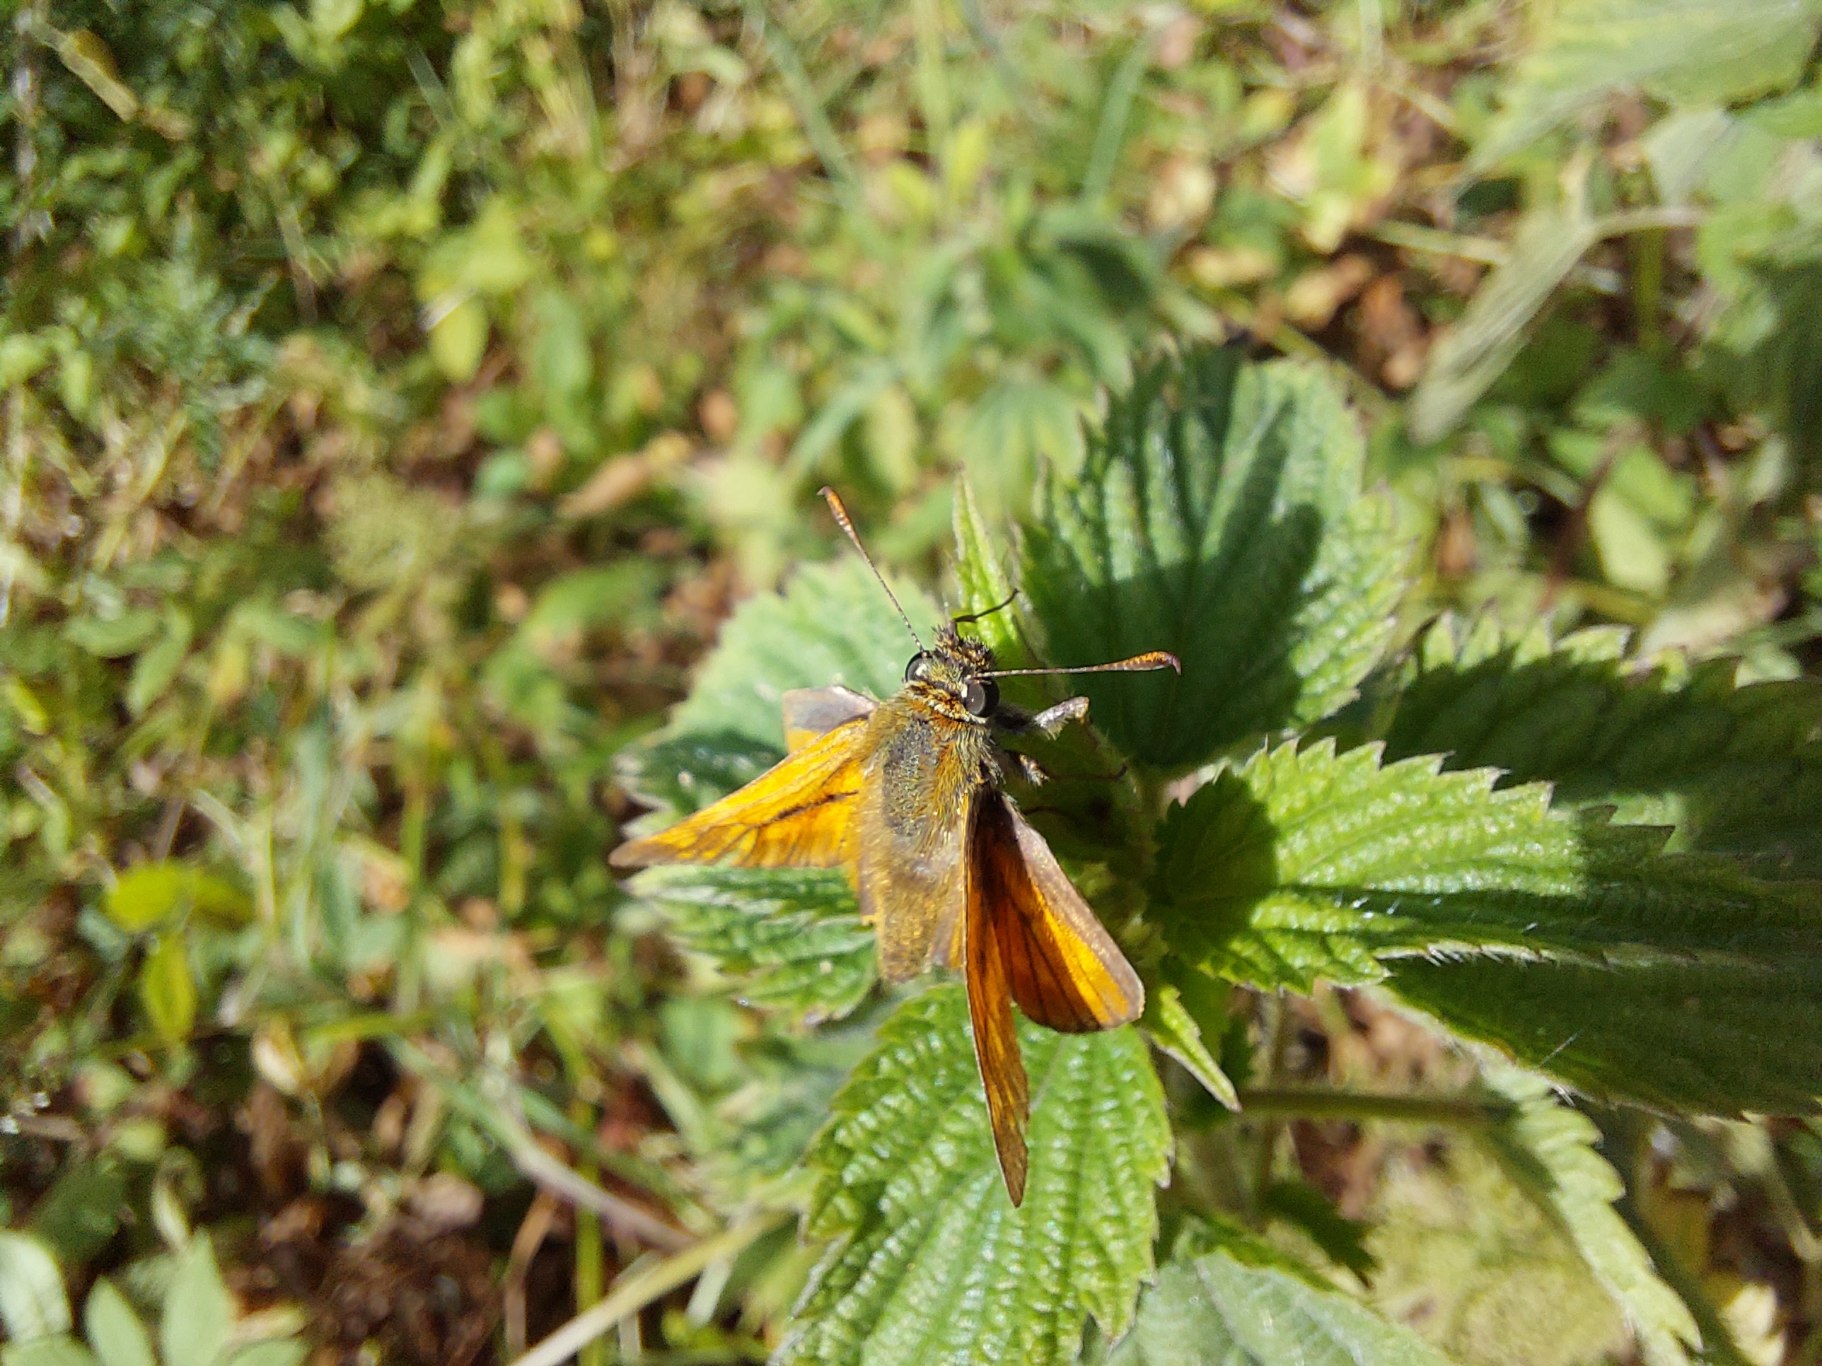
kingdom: Animalia
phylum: Arthropoda
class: Insecta
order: Lepidoptera
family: Hesperiidae
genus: Ochlodes
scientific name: Ochlodes venata
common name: Stor bredpande
